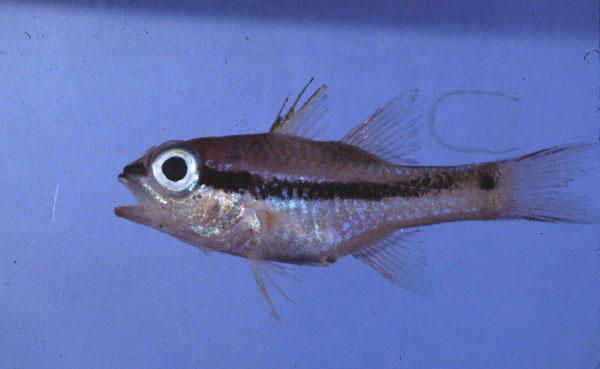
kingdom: Animalia
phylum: Chordata
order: Perciformes
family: Apogonidae
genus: Pristiapogon
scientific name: Pristiapogon kallopterus
